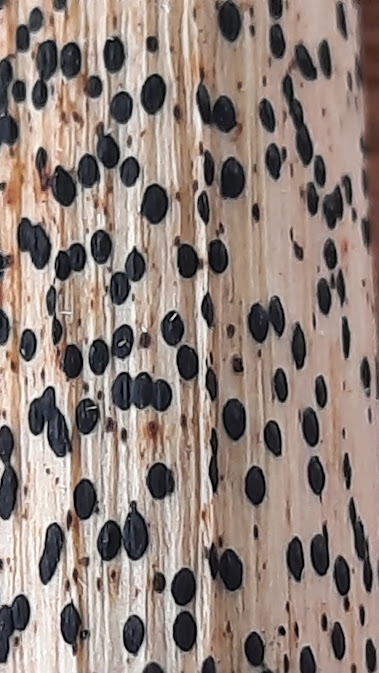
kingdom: Fungi
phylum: Ascomycota
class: Leotiomycetes
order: Rhytismatales
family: Rhytismataceae
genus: Lophodermium
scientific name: Lophodermium paeoniae
